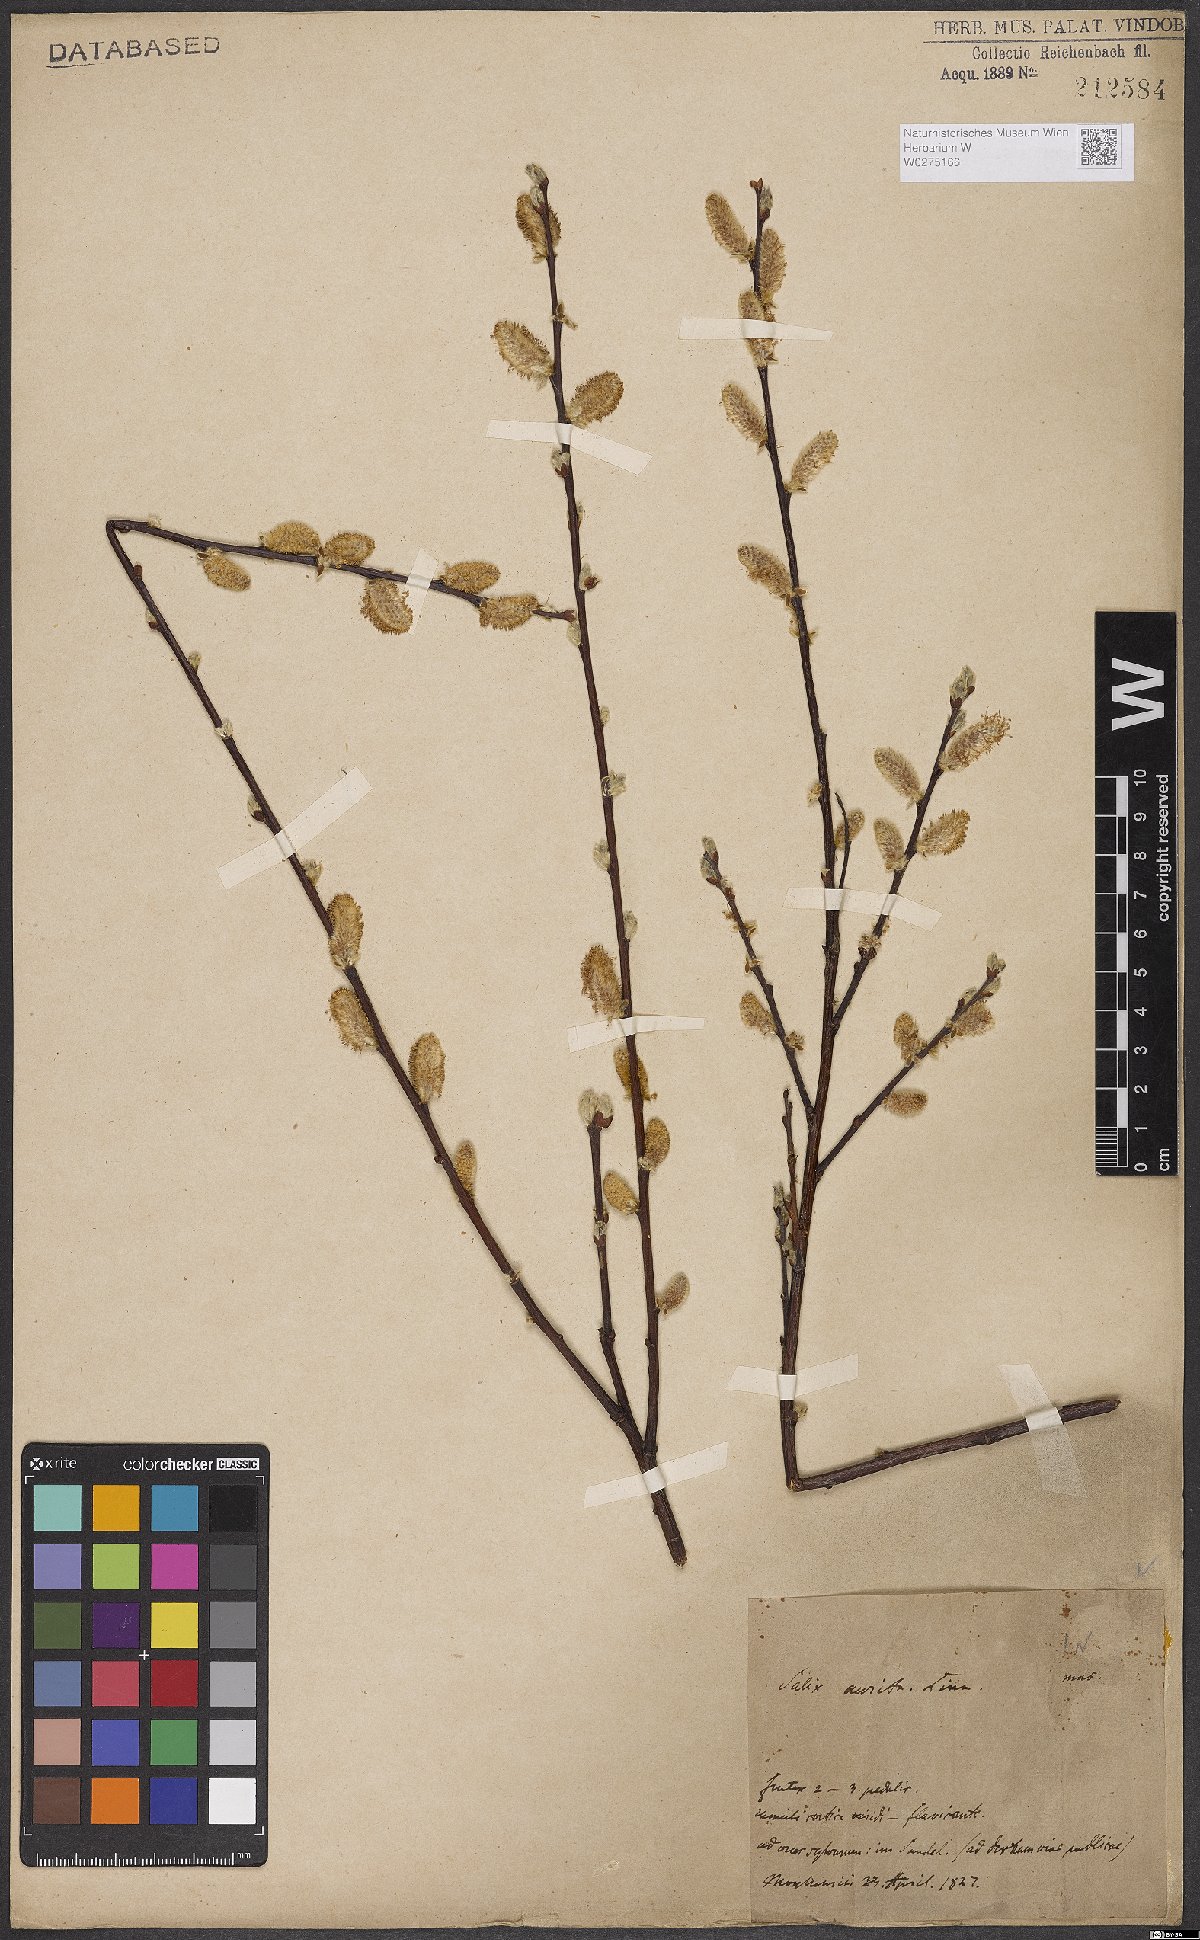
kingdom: Plantae
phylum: Tracheophyta
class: Magnoliopsida
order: Malpighiales
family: Salicaceae
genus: Salix
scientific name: Salix aurita
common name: Eared willow
